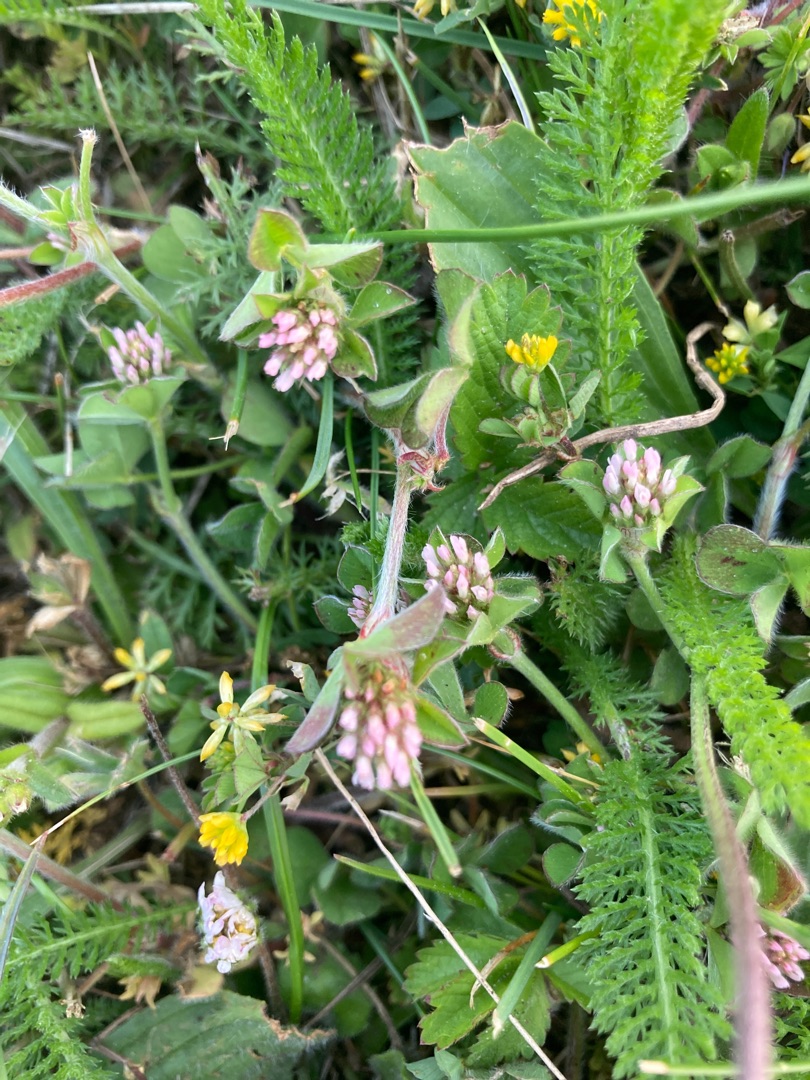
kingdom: Plantae
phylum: Tracheophyta
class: Magnoliopsida
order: Fabales
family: Fabaceae
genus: Trifolium
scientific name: Trifolium striatum
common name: Stribet kløver
